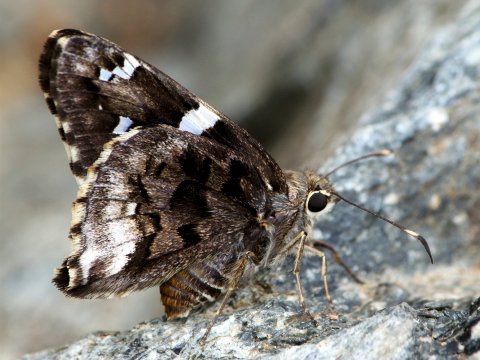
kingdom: Animalia
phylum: Arthropoda
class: Insecta
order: Lepidoptera
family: Hesperiidae
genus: Codatractus
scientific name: Codatractus arizonensis
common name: Arizona Skipper
